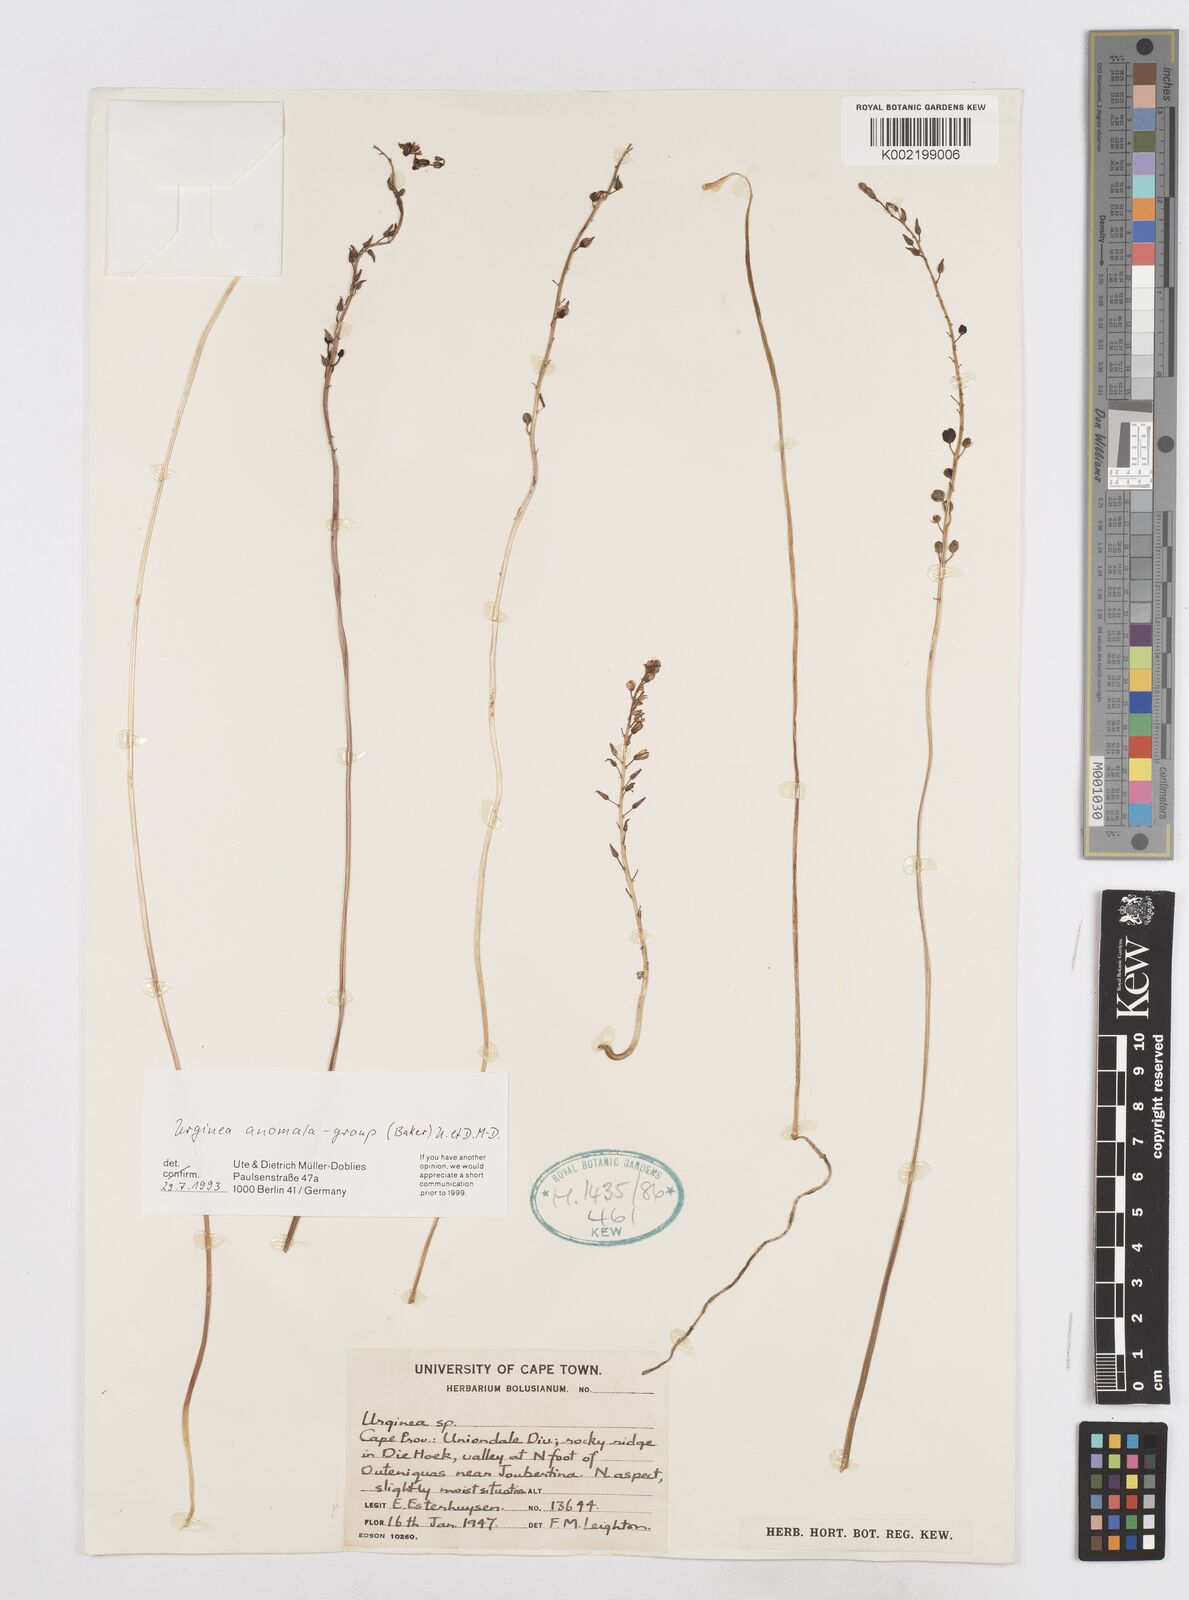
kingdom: Plantae
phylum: Tracheophyta
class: Liliopsida
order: Asparagales
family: Asparagaceae
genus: Drimia
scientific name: Drimia anomala
